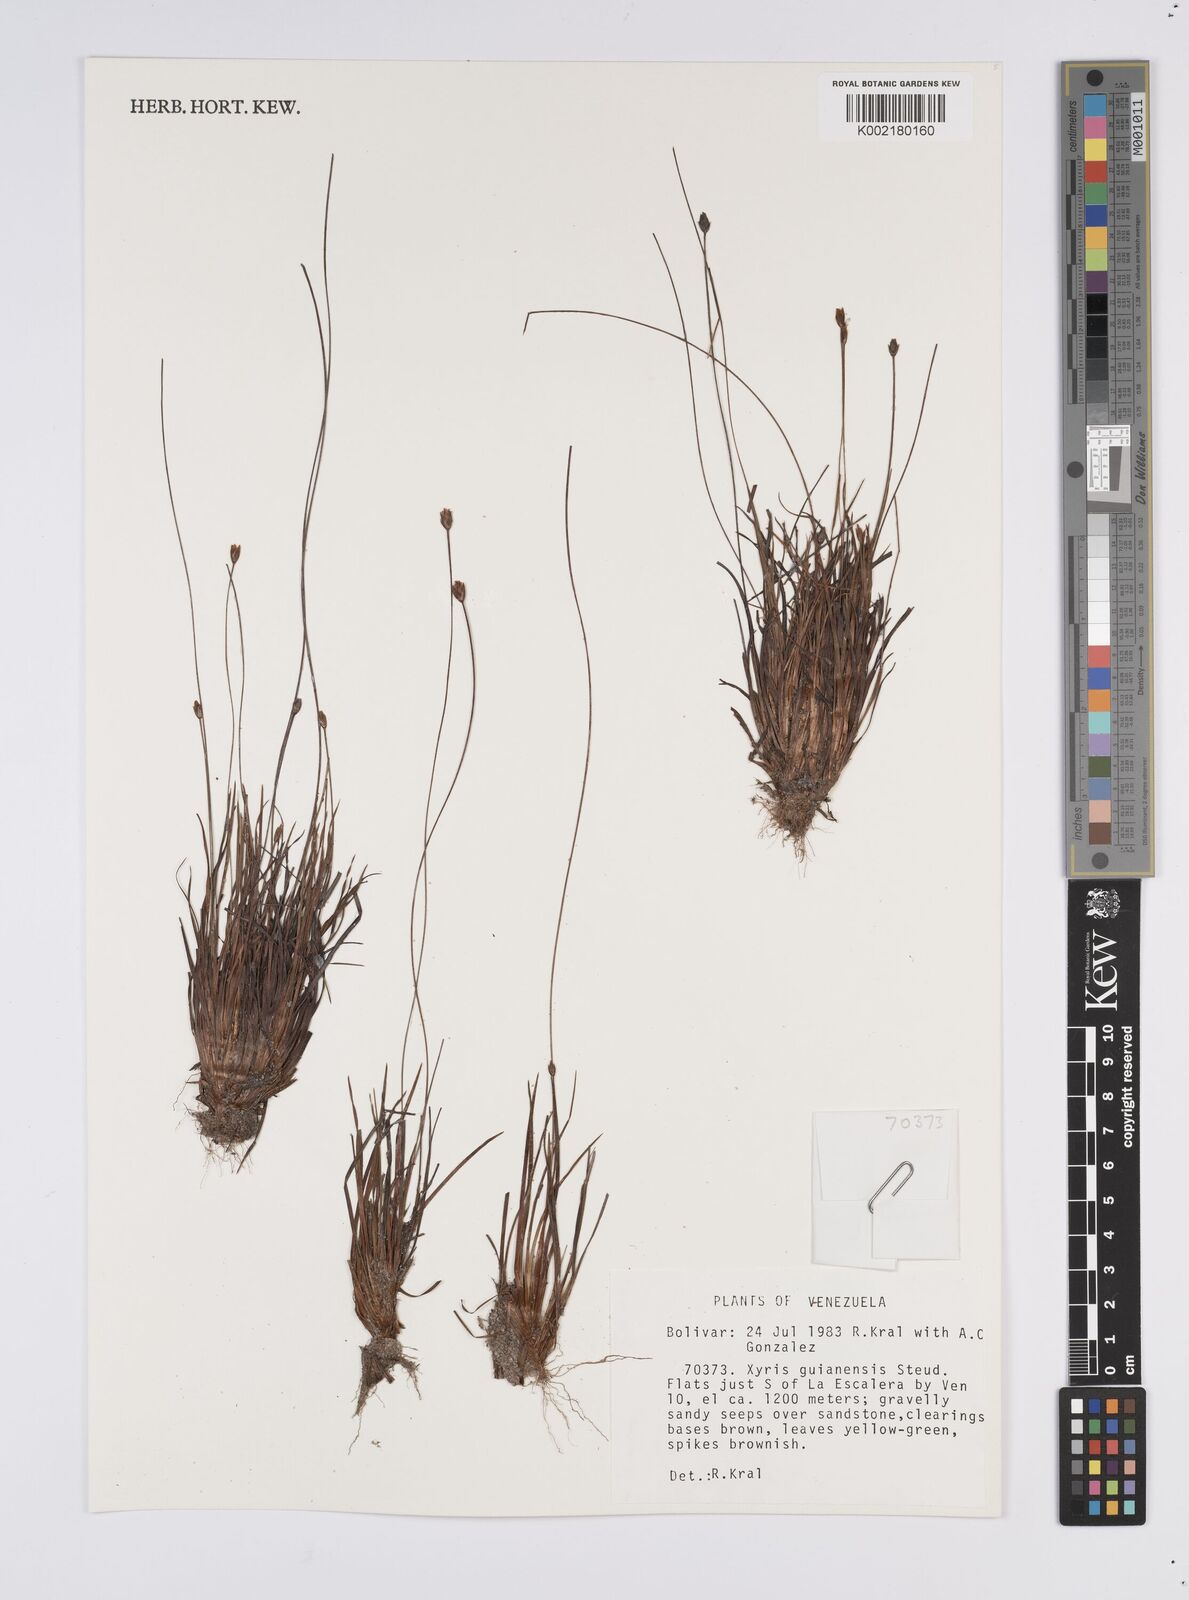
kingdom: Plantae
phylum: Tracheophyta
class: Liliopsida
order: Poales
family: Xyridaceae
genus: Xyris
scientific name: Xyris guianensis
